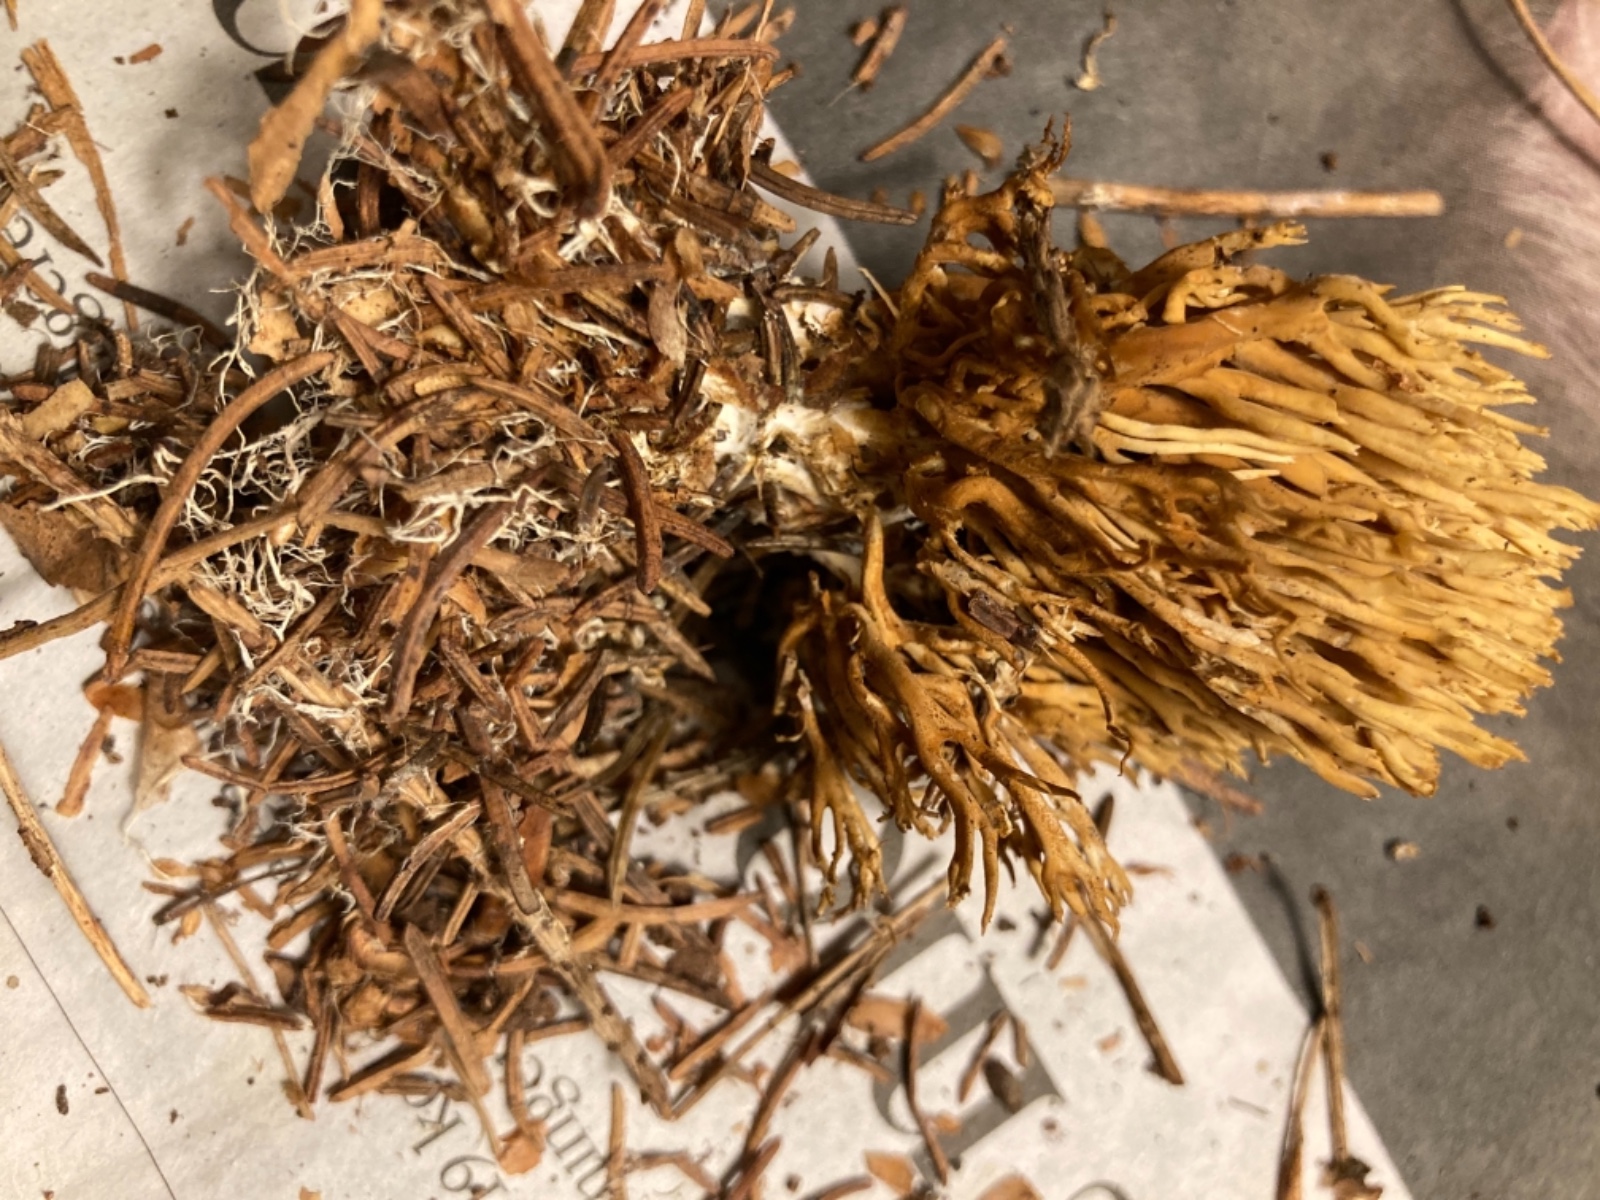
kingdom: Fungi
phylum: Basidiomycota
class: Agaricomycetes
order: Gomphales
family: Gomphaceae
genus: Phaeoclavulina
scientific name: Phaeoclavulina eumorpha
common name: gran-koralsvamp
